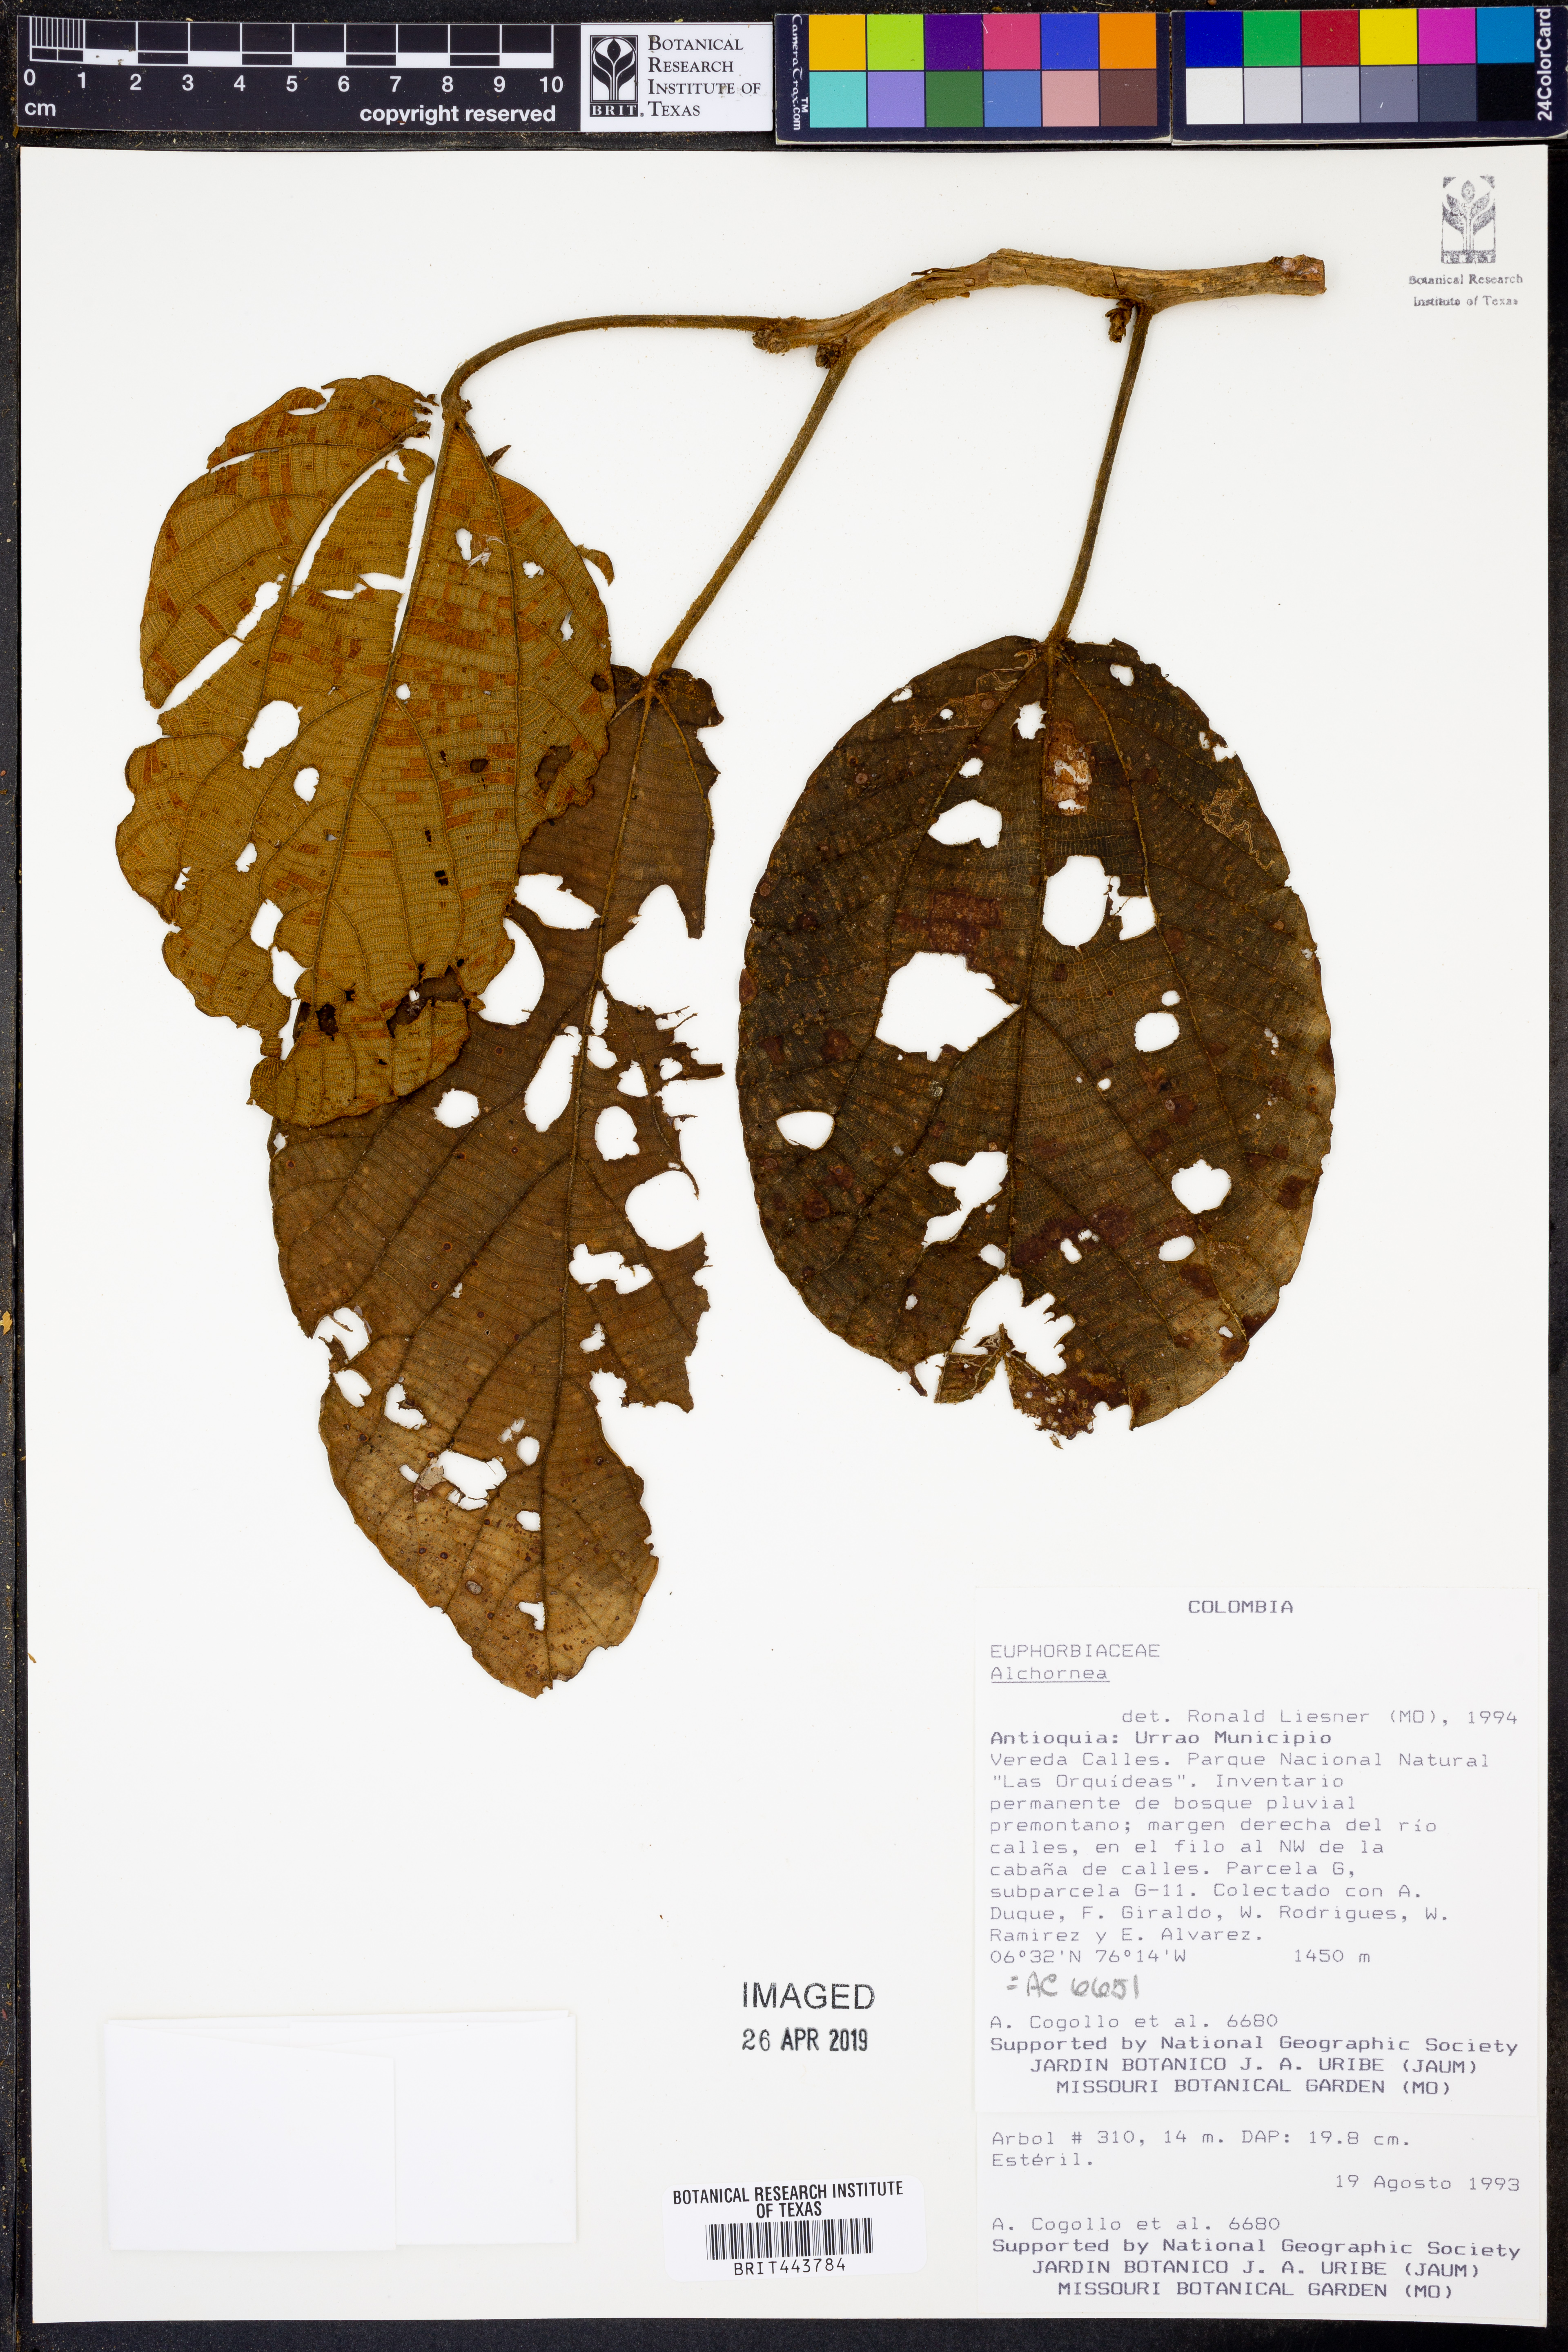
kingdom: Plantae
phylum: Tracheophyta
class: Magnoliopsida
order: Malpighiales
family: Euphorbiaceae
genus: Alchornea
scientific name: Alchornea
